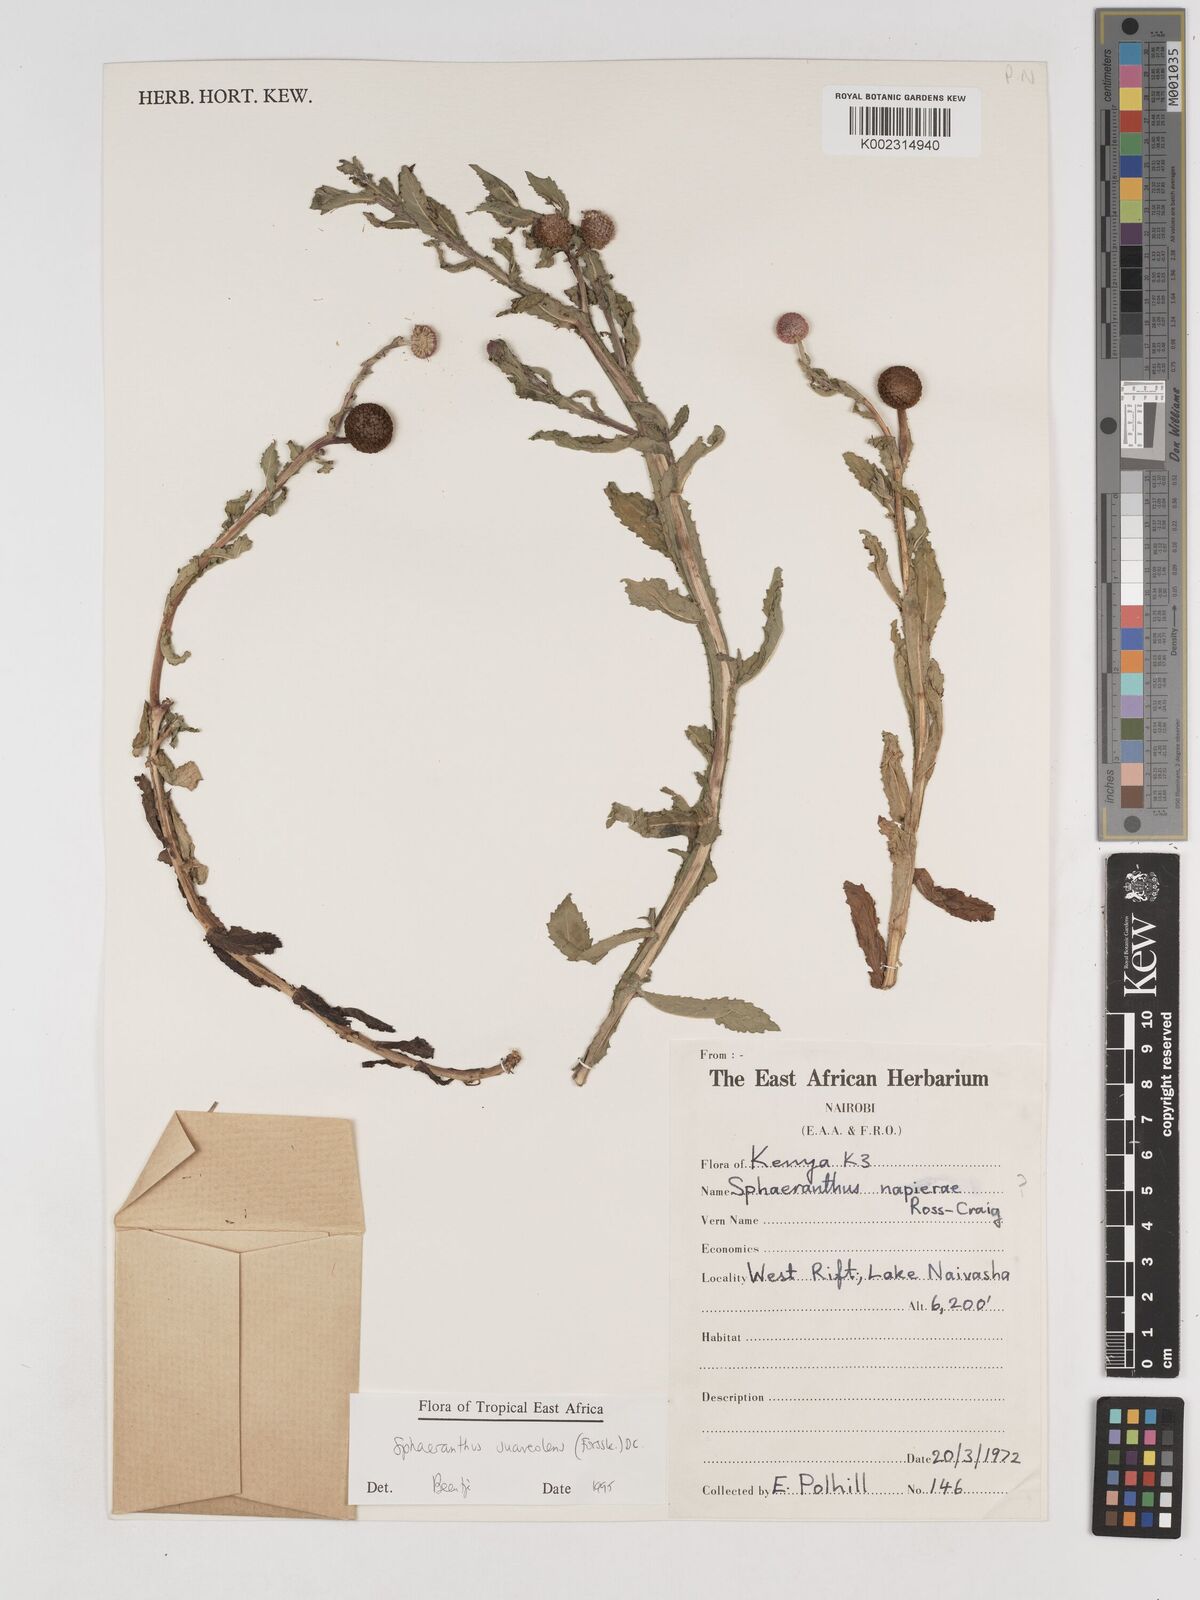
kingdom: Plantae
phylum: Tracheophyta
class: Magnoliopsida
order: Asterales
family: Asteraceae
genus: Sphaeranthus
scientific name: Sphaeranthus suaveolens
